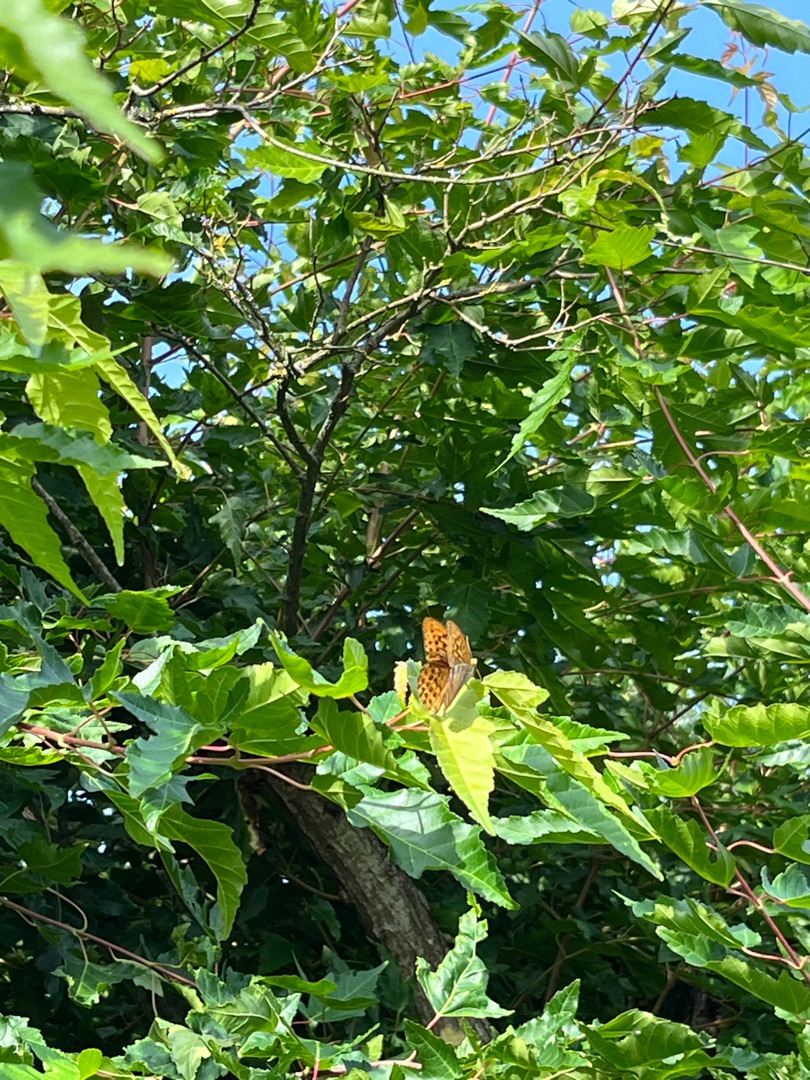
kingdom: Animalia
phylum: Arthropoda
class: Insecta
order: Lepidoptera
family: Nymphalidae
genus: Argynnis
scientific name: Argynnis paphia
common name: Kejserkåbe
